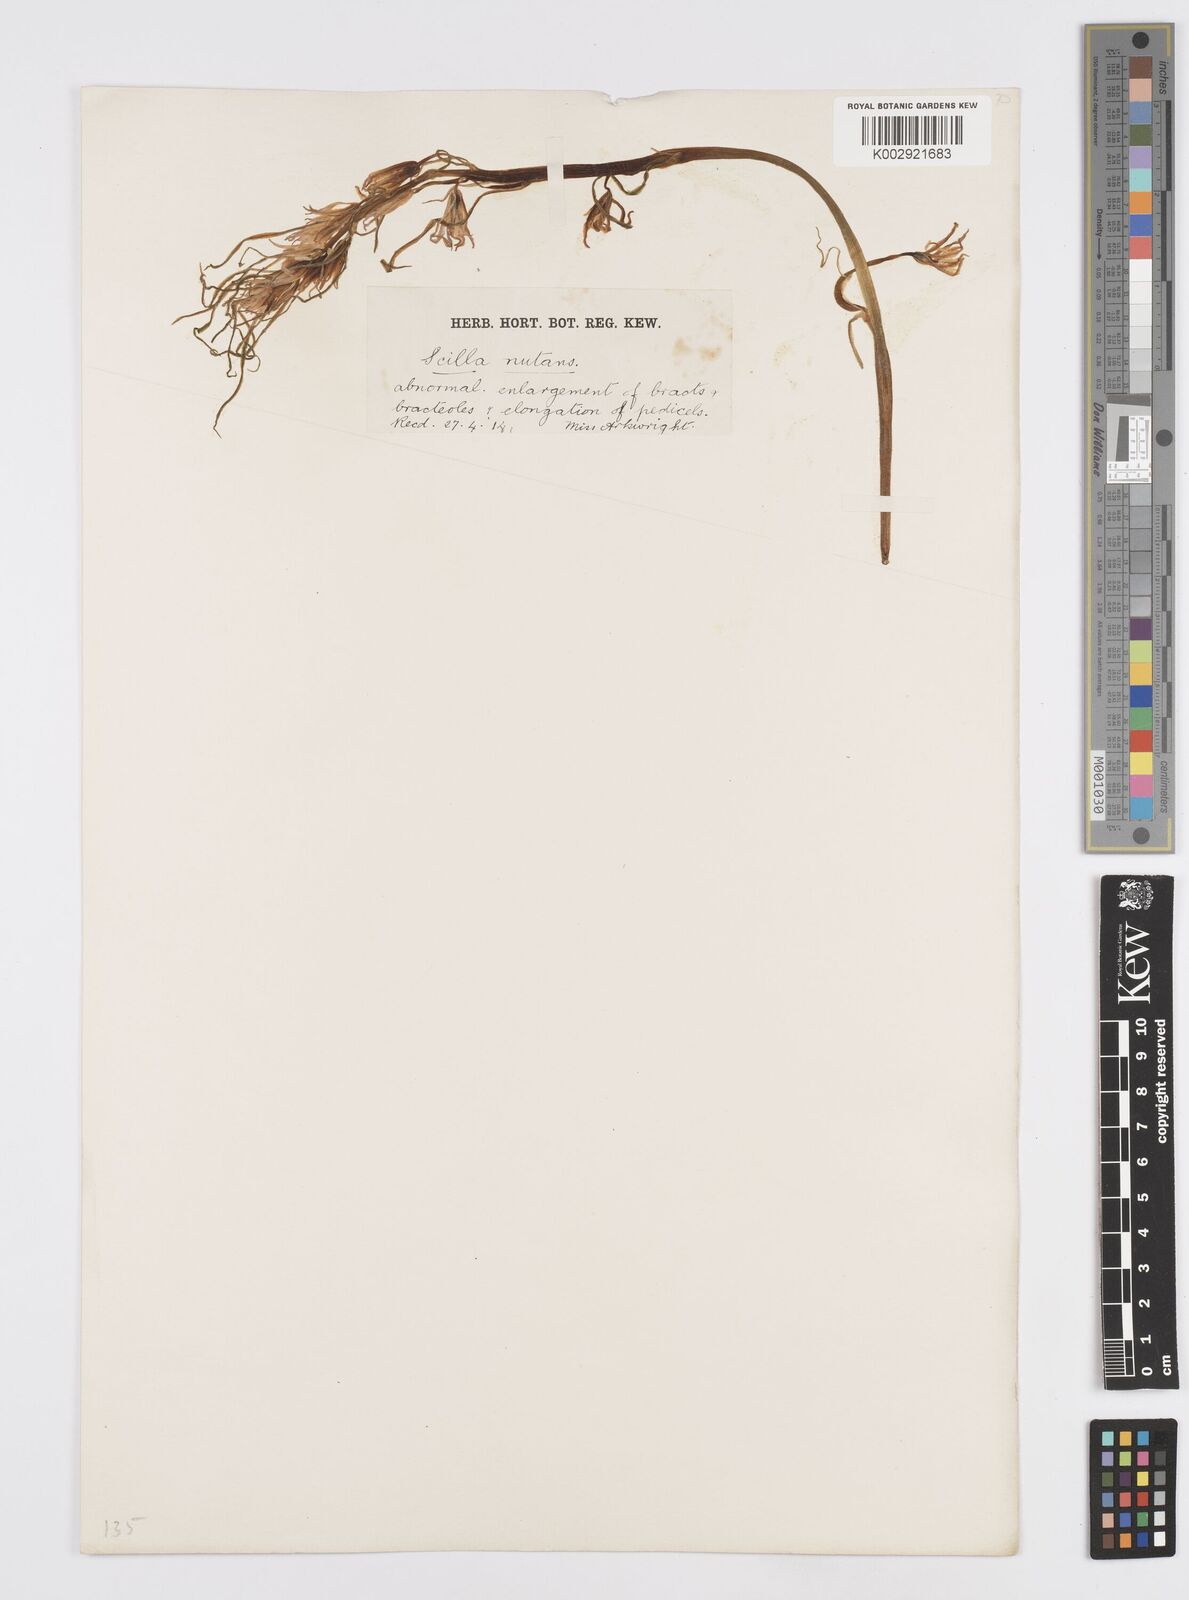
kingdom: Plantae
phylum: Tracheophyta
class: Liliopsida
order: Asparagales
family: Asparagaceae
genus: Hyacinthoides
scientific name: Hyacinthoides
